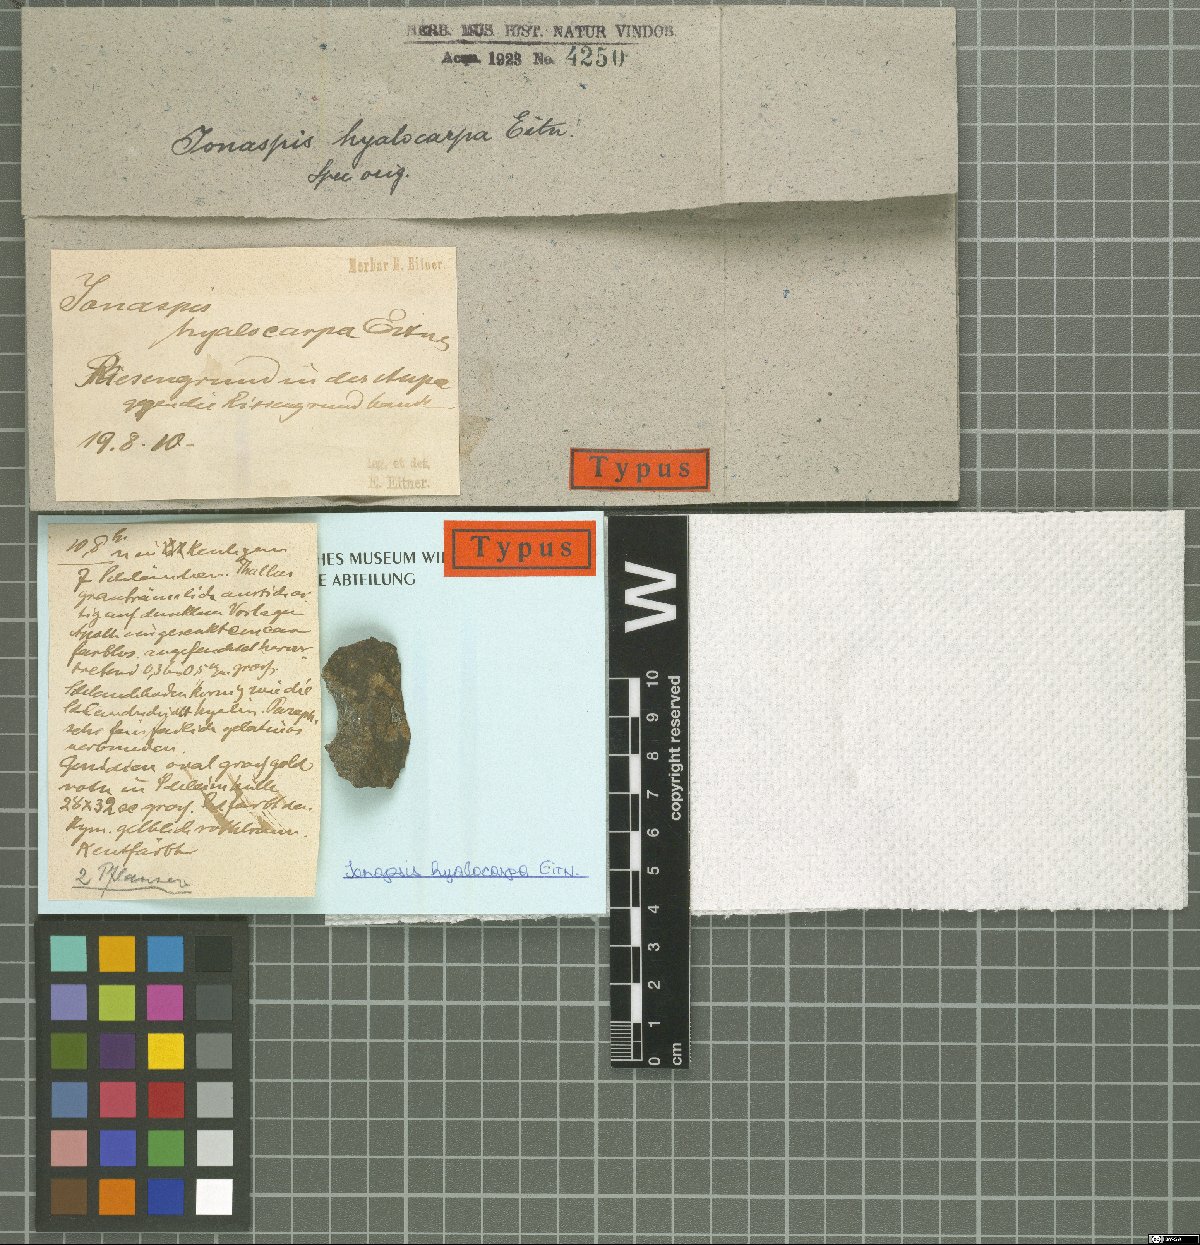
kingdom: Fungi
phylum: Ascomycota
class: Lecanoromycetes
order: Hymeneliales
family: Hymeneliaceae
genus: Ionaspis
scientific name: Ionaspis
